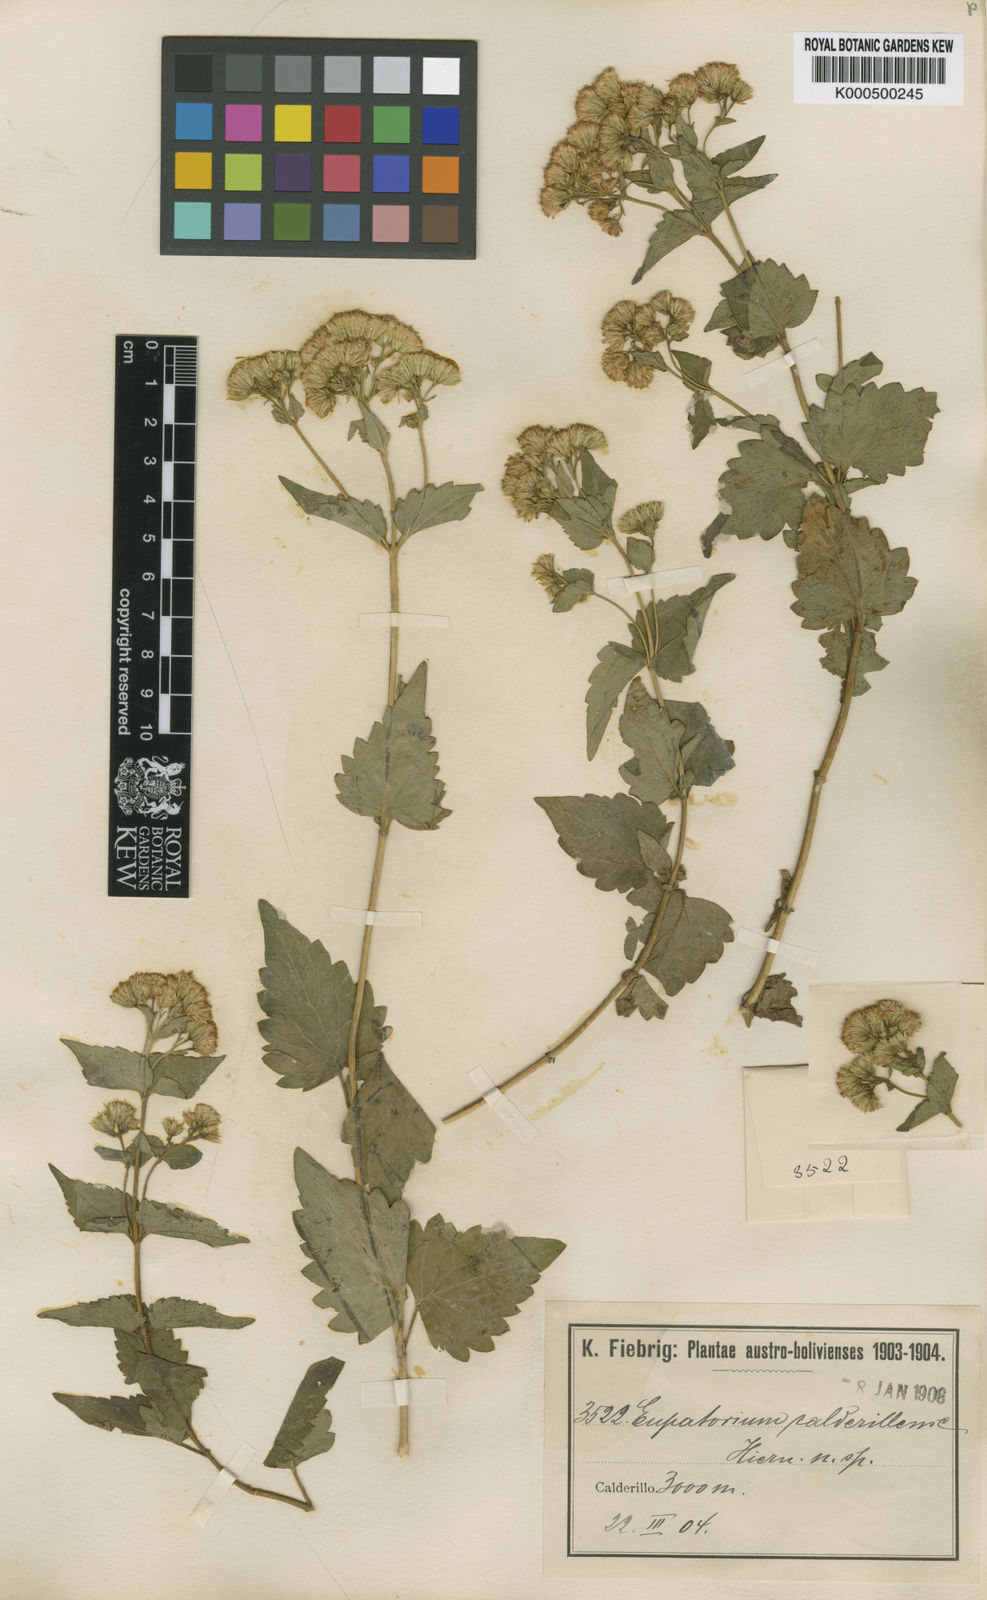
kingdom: Plantae
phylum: Tracheophyta
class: Magnoliopsida
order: Asterales
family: Asteraceae
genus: Ageratina
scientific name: Ageratina lorentzii
